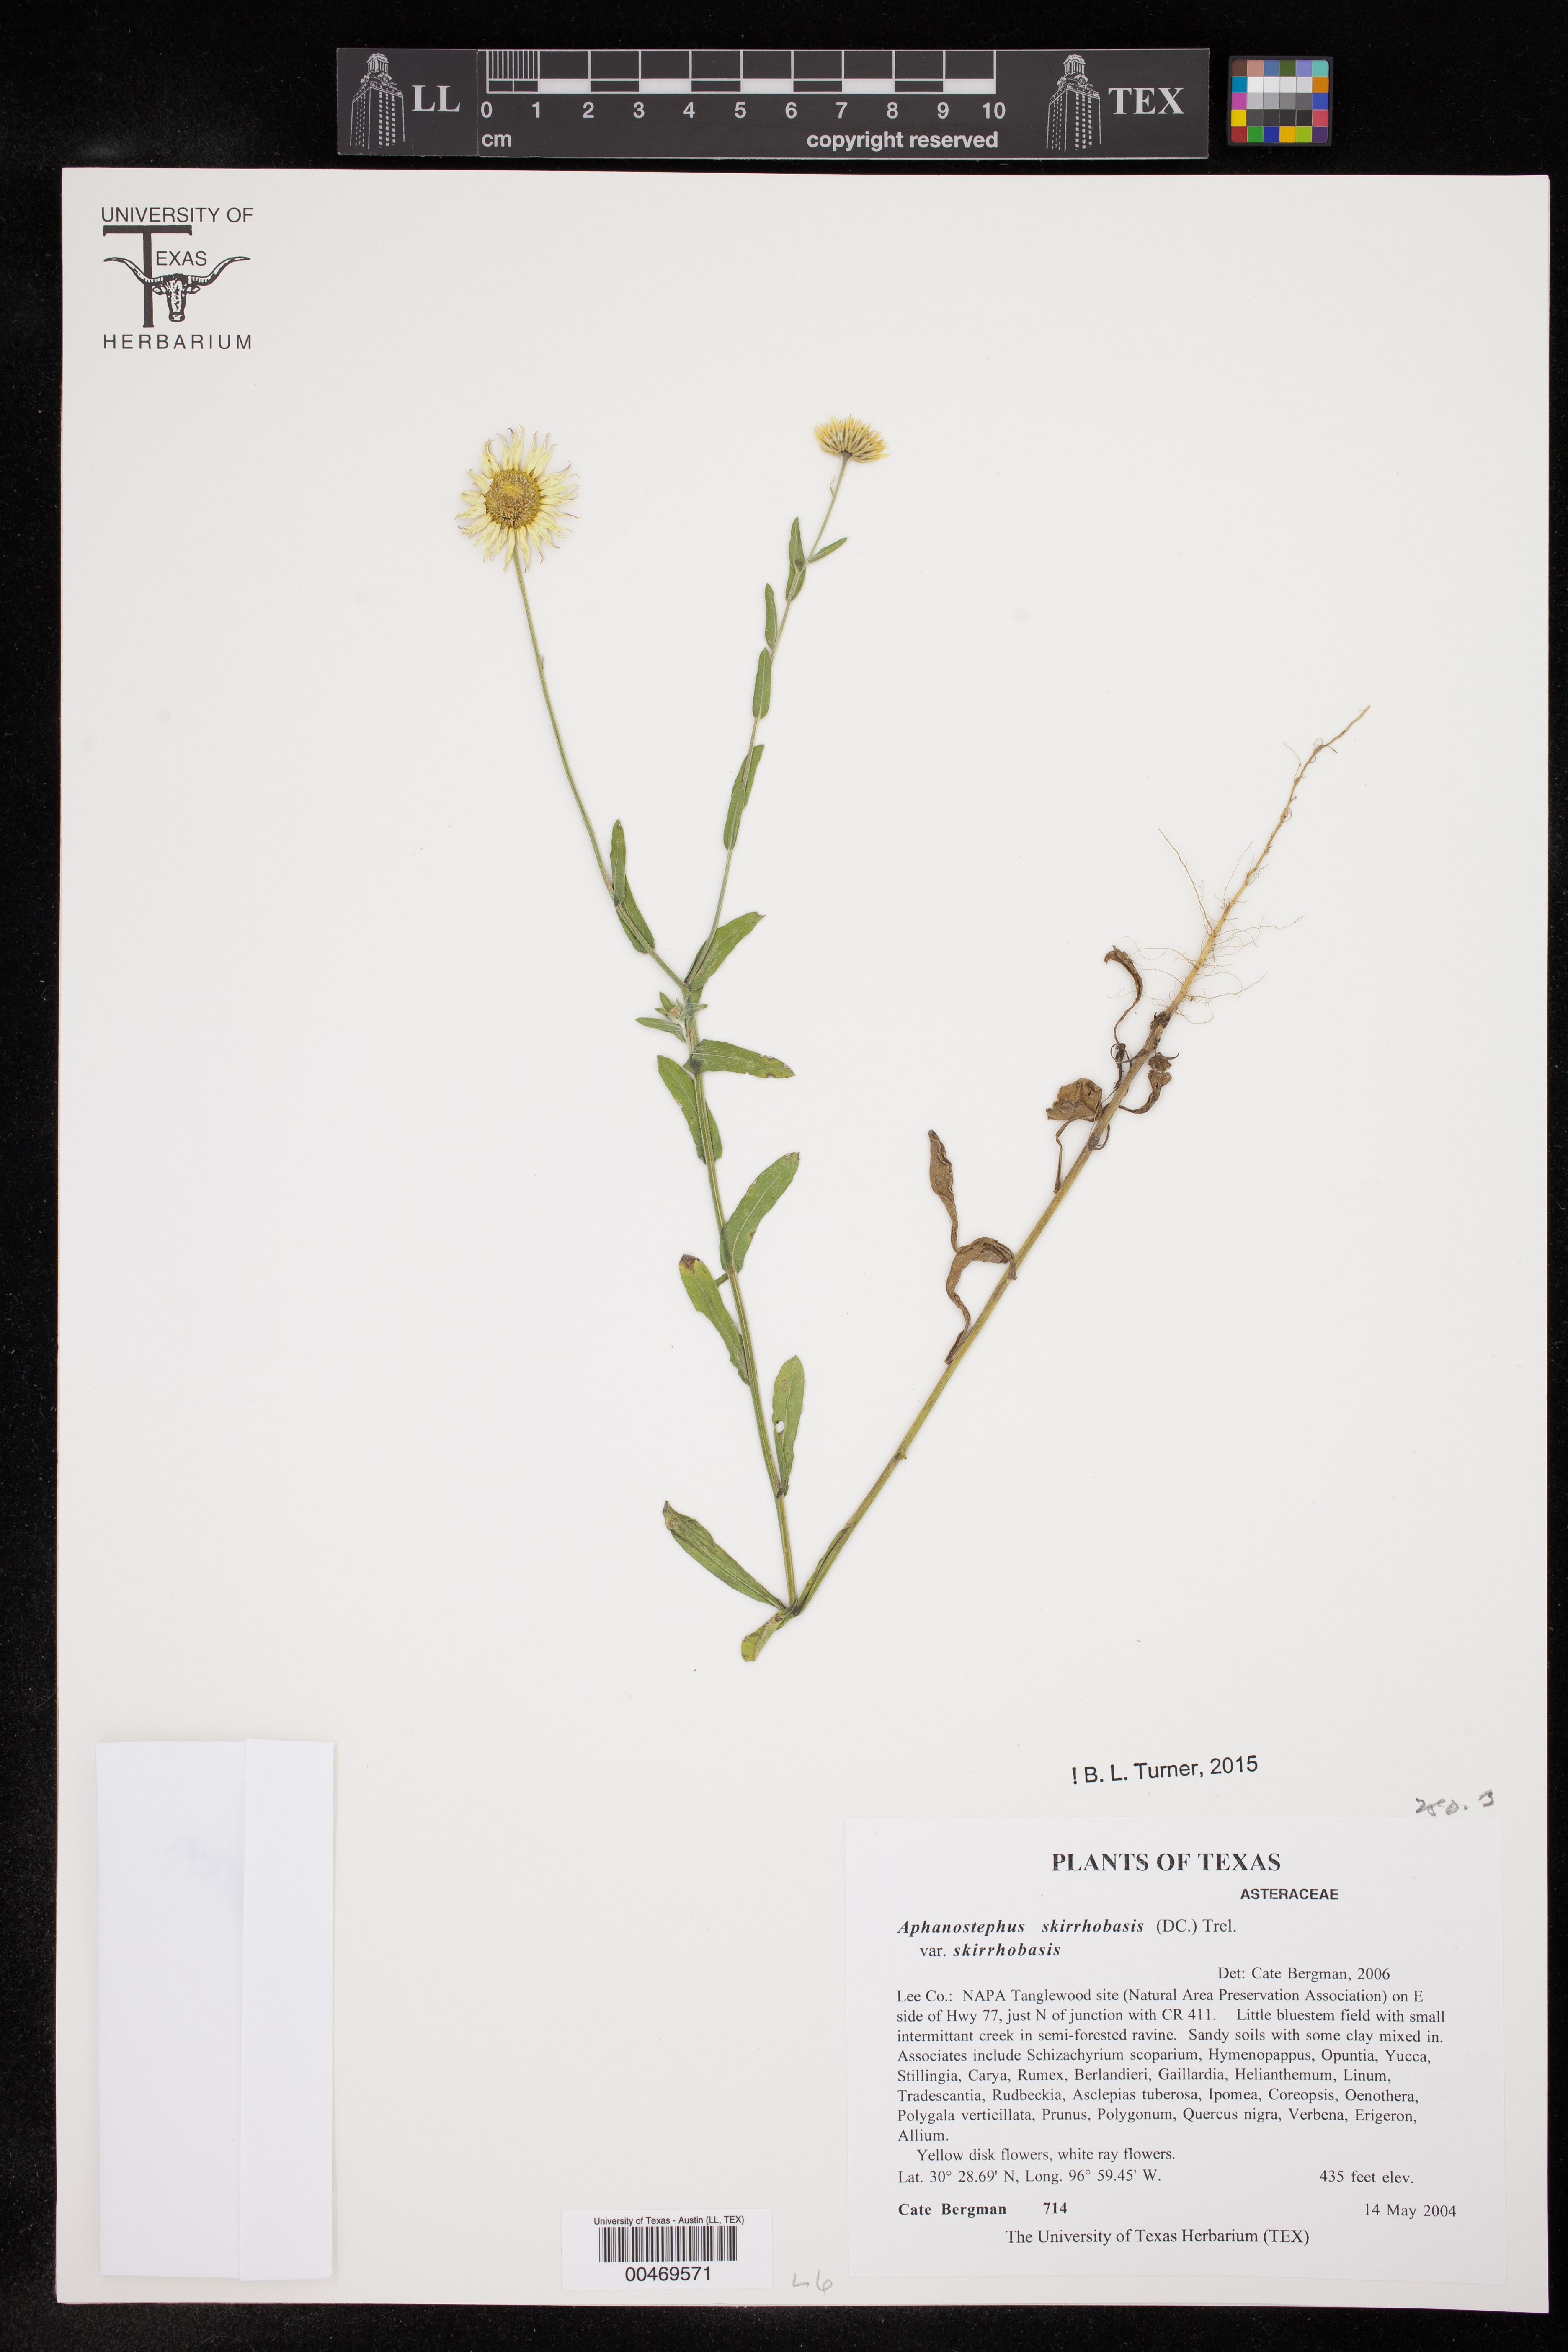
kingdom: Plantae
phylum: Tracheophyta
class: Magnoliopsida
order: Asterales
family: Asteraceae
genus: Aphanostephus
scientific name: Aphanostephus skirrhobasis
